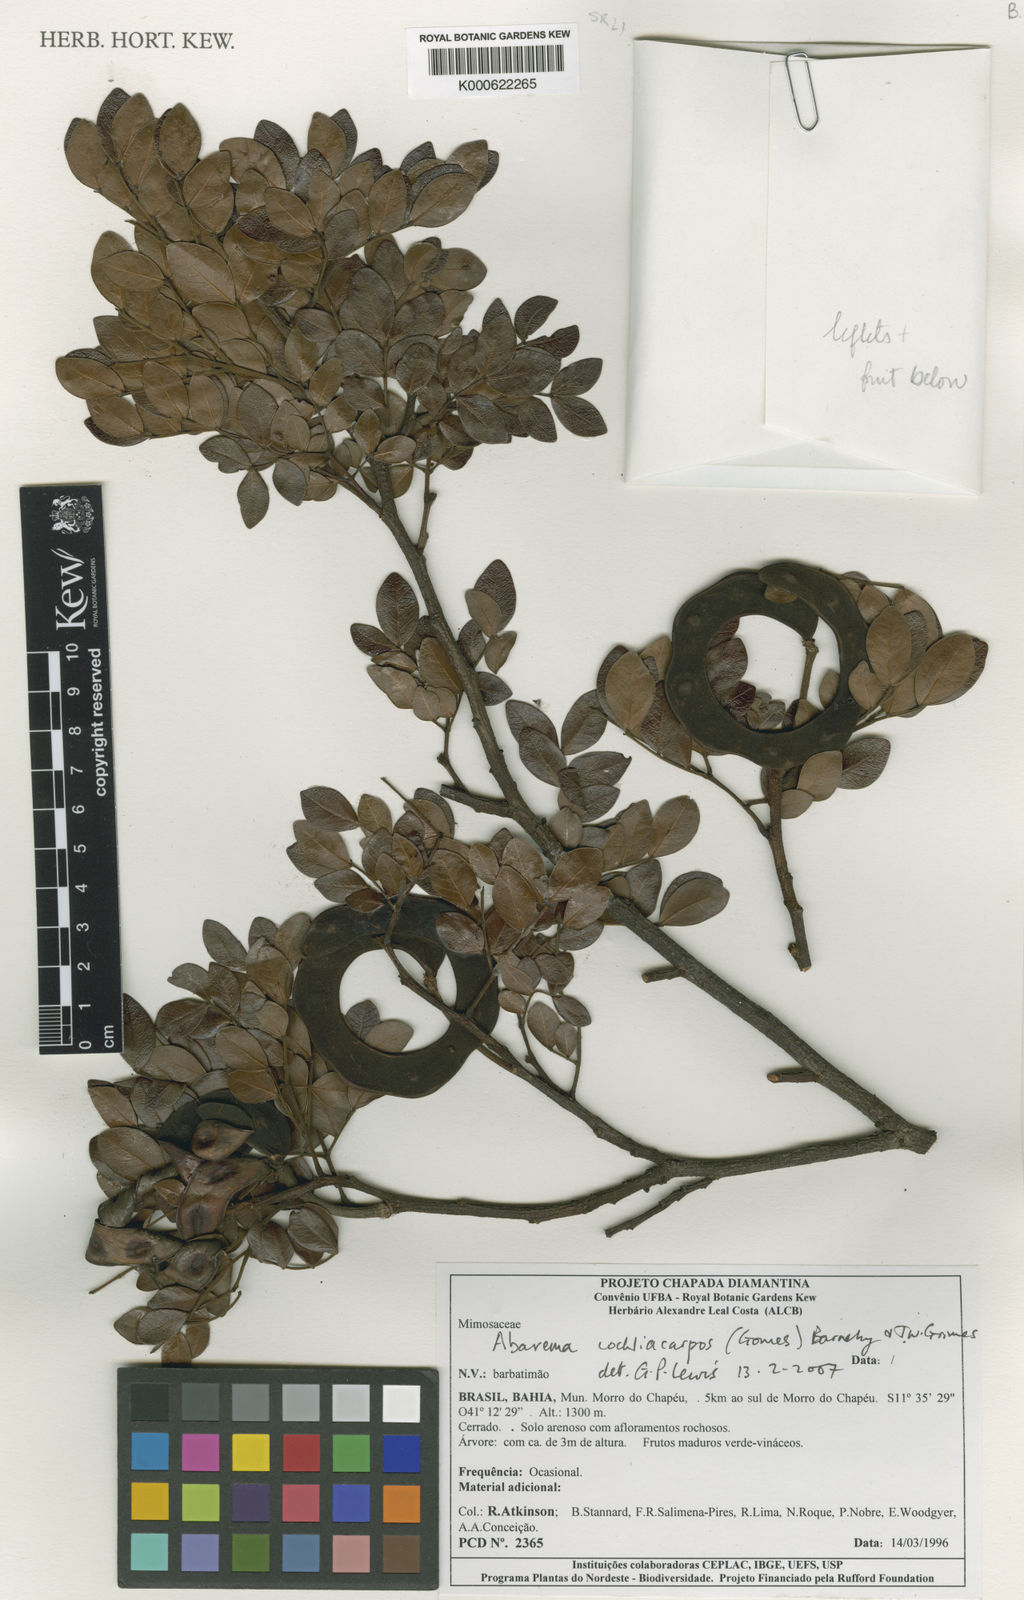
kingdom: Plantae
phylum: Tracheophyta
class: Magnoliopsida
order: Fabales
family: Fabaceae
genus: Abarema
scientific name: Abarema
